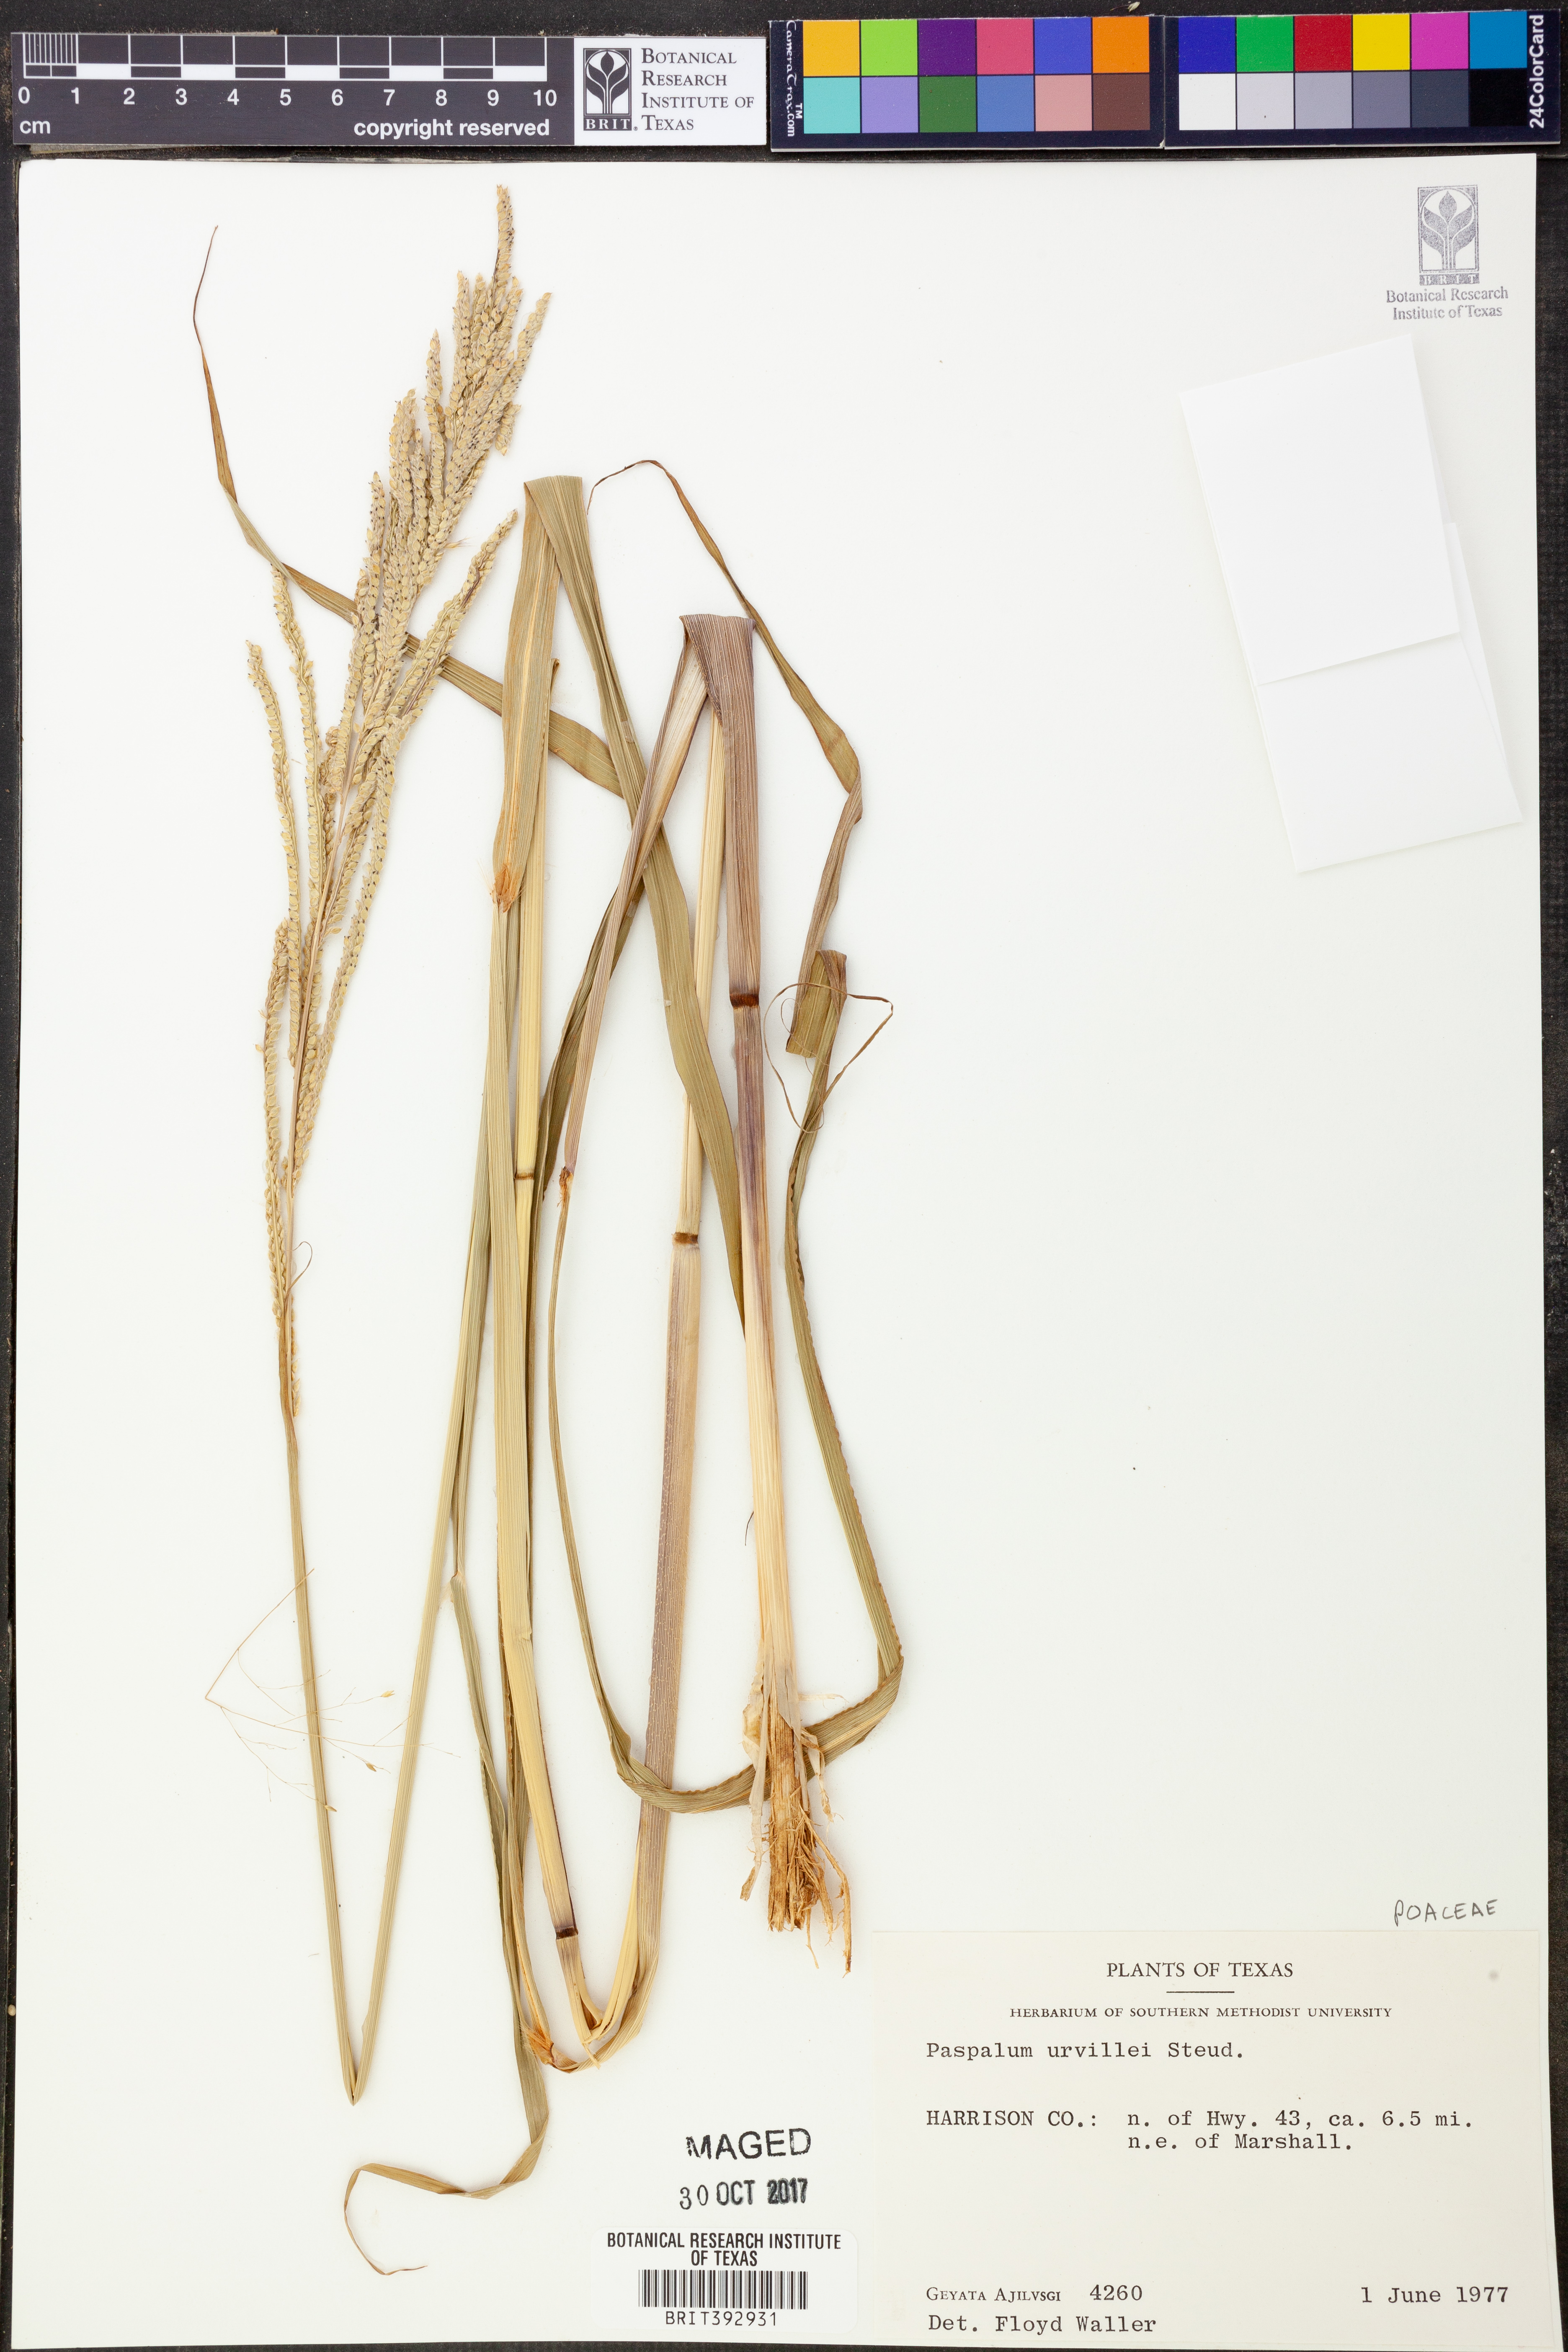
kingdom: Plantae
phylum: Tracheophyta
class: Liliopsida
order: Poales
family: Poaceae
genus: Paspalum
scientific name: Paspalum urvillei
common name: Vasey's grass
